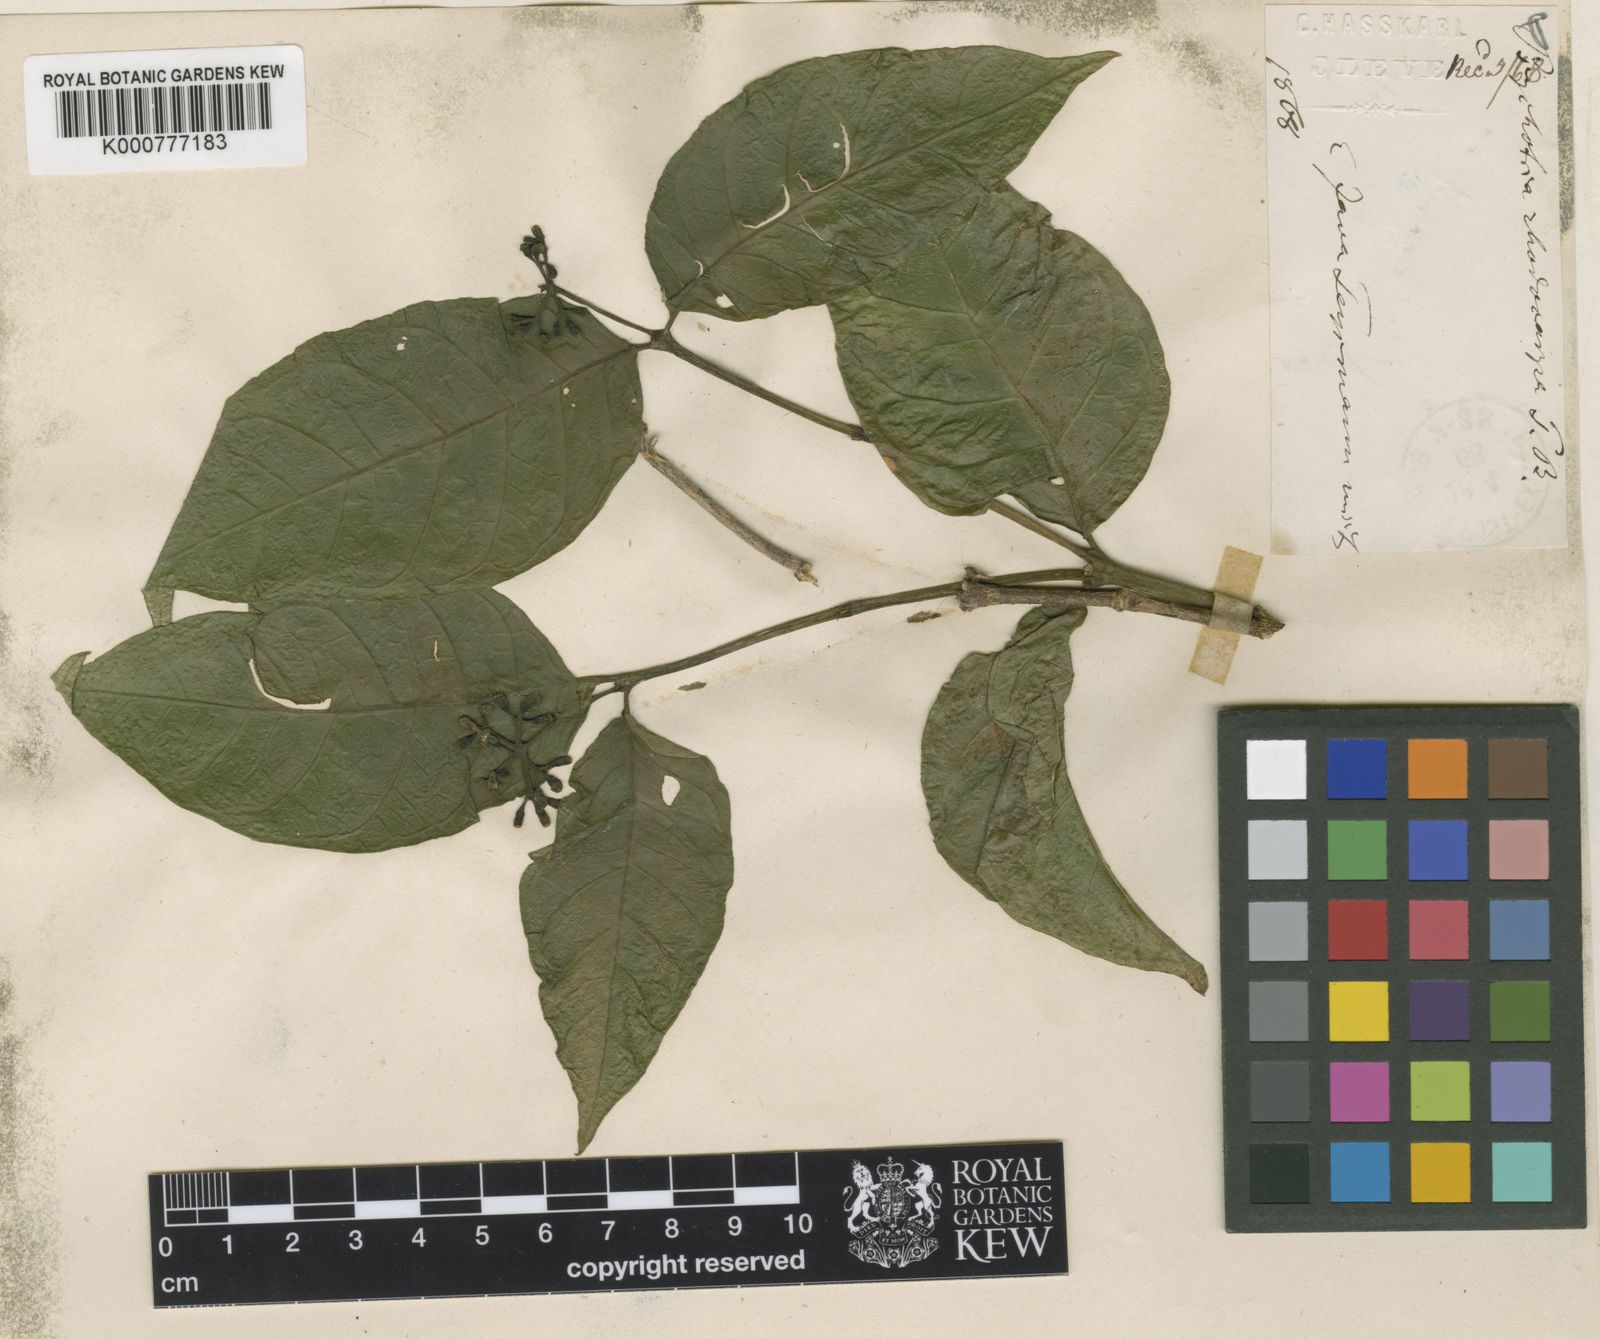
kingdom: Plantae
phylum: Tracheophyta
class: Magnoliopsida
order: Gentianales
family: Rubiaceae
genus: Eumachia
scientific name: Eumachia horsfieldiana
